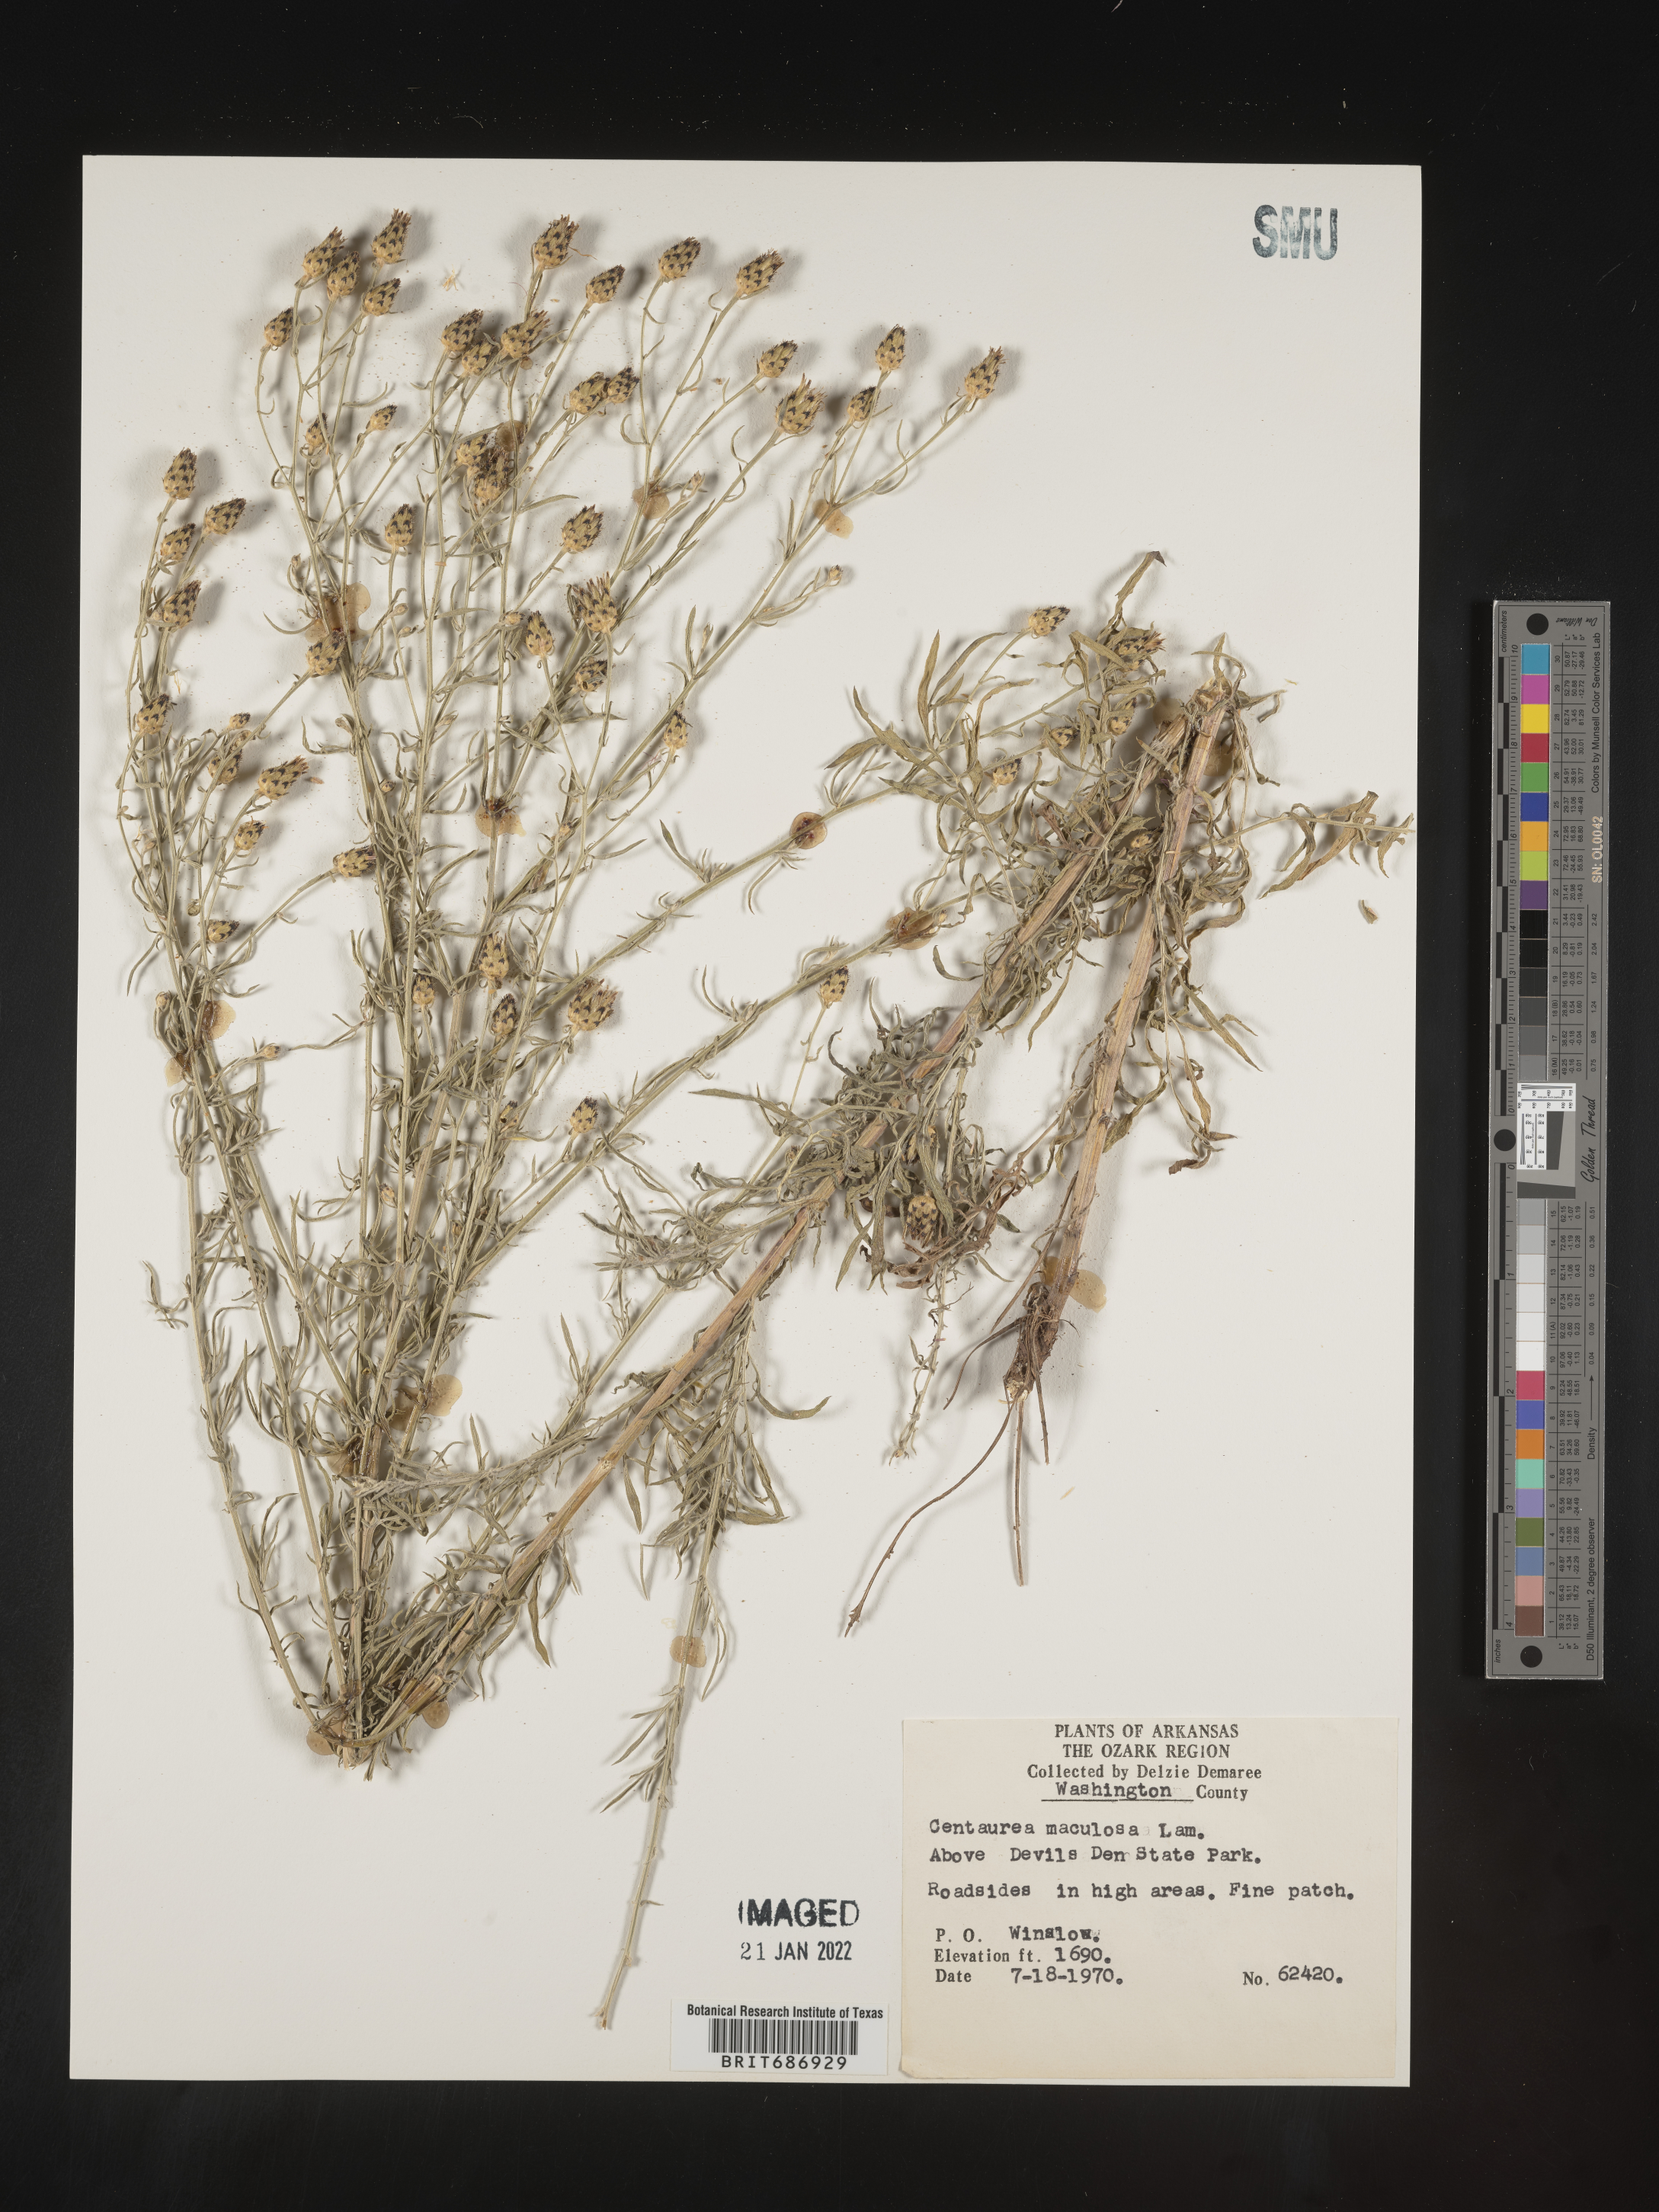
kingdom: Plantae
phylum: Tracheophyta
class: Magnoliopsida
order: Asterales
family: Asteraceae
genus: Centaurea
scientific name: Centaurea stoebe
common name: Spotted knapweed
